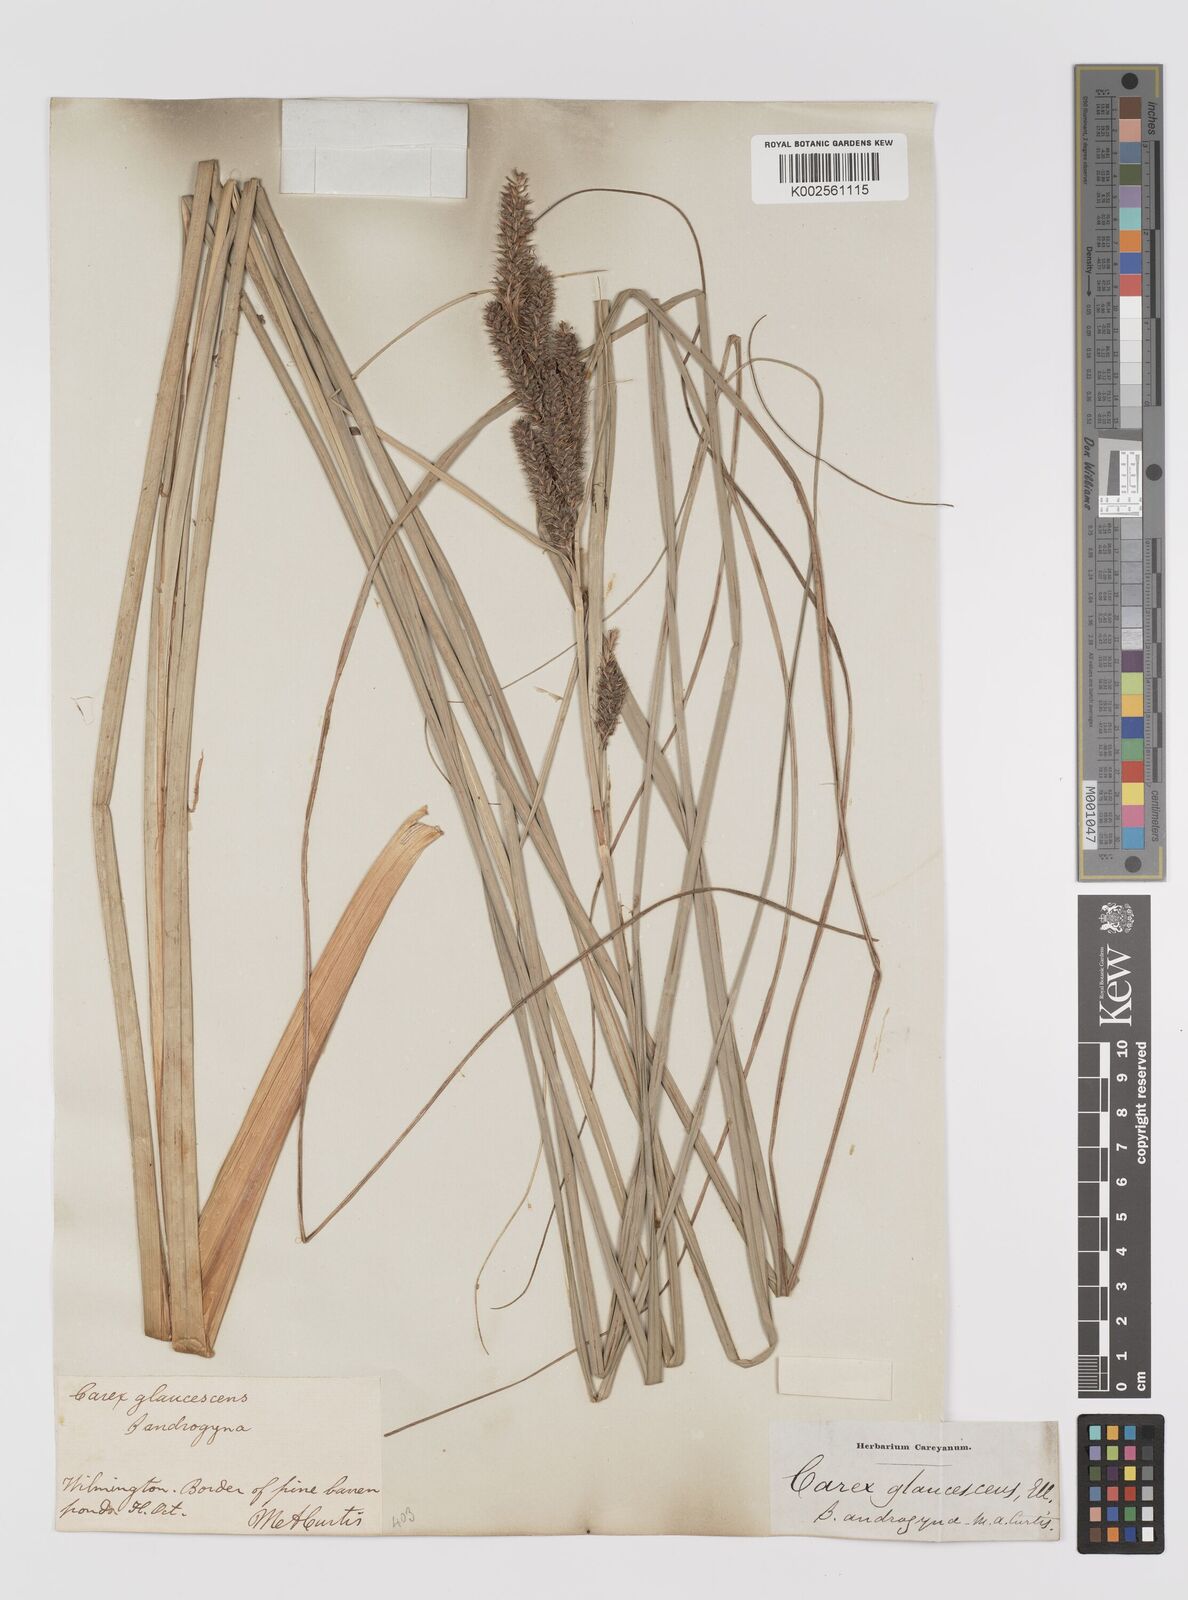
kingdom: Plantae
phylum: Tracheophyta
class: Liliopsida
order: Poales
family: Cyperaceae
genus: Carex
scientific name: Carex glaucescens
